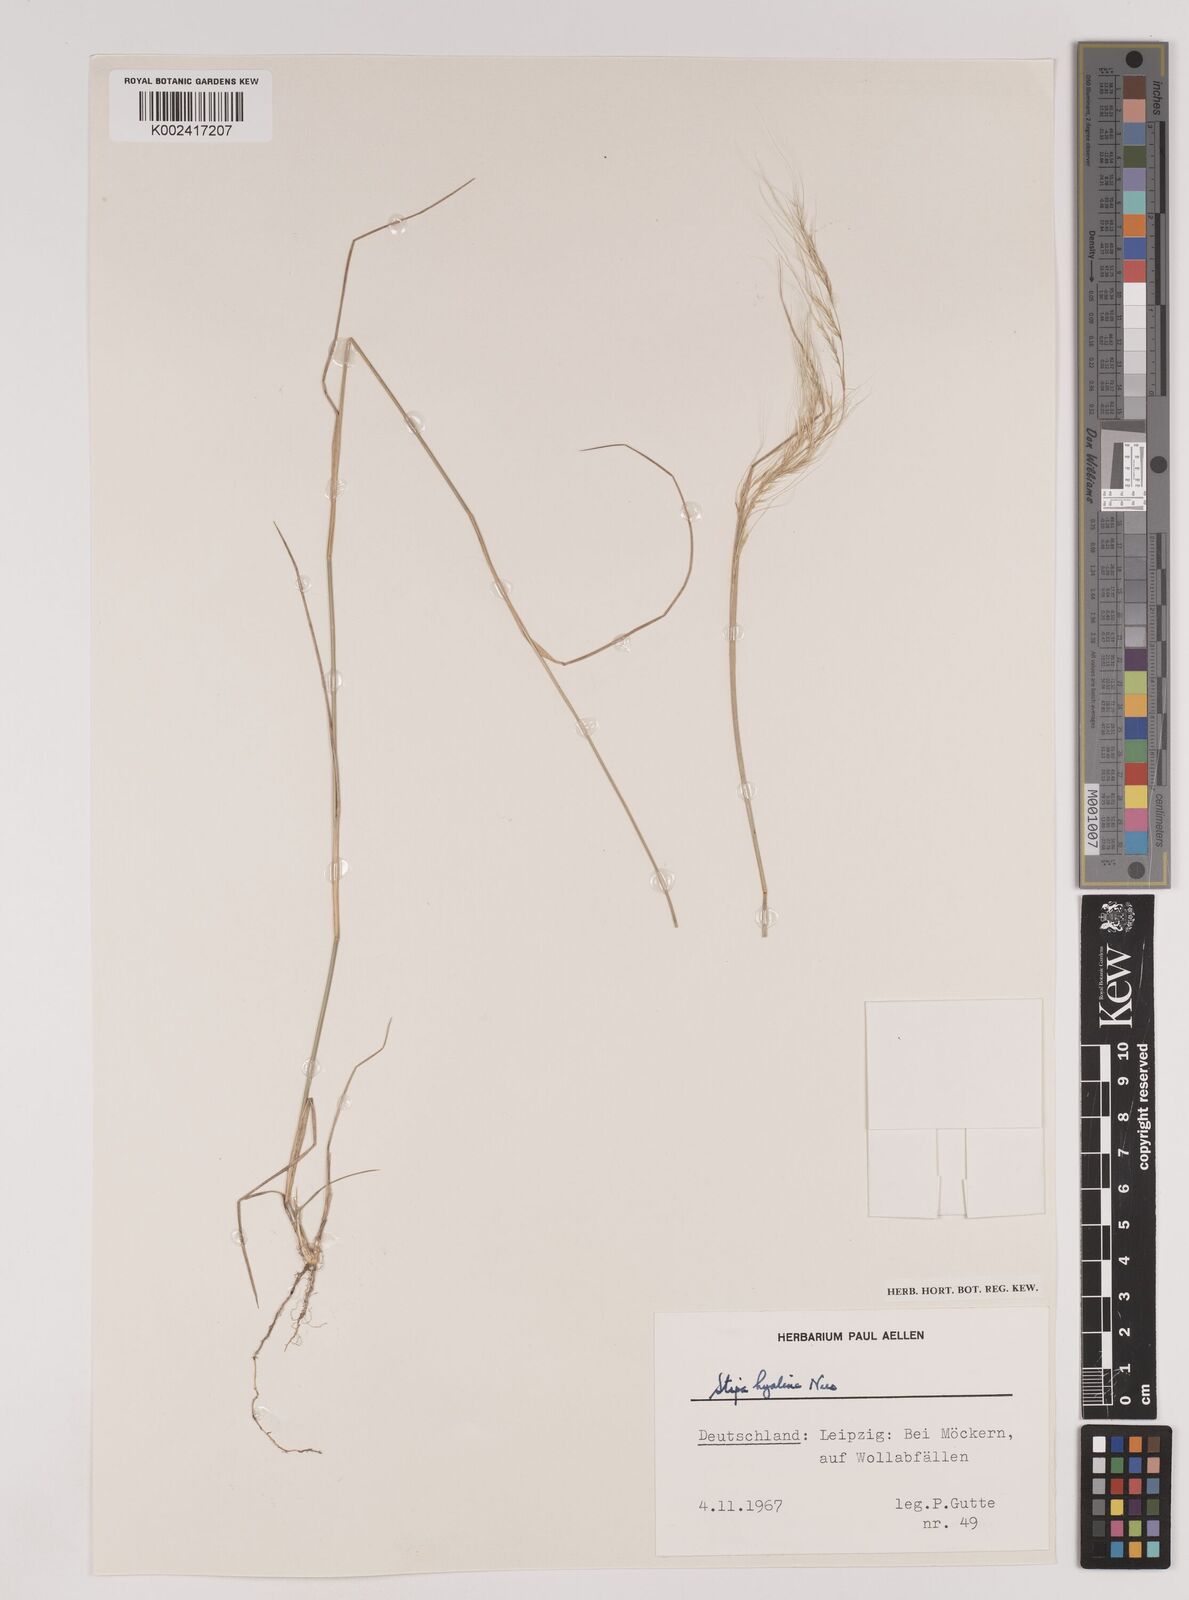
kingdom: Plantae
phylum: Tracheophyta
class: Liliopsida
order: Poales
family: Poaceae
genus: Nassella
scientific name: Nassella hyalina
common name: Spear grass
